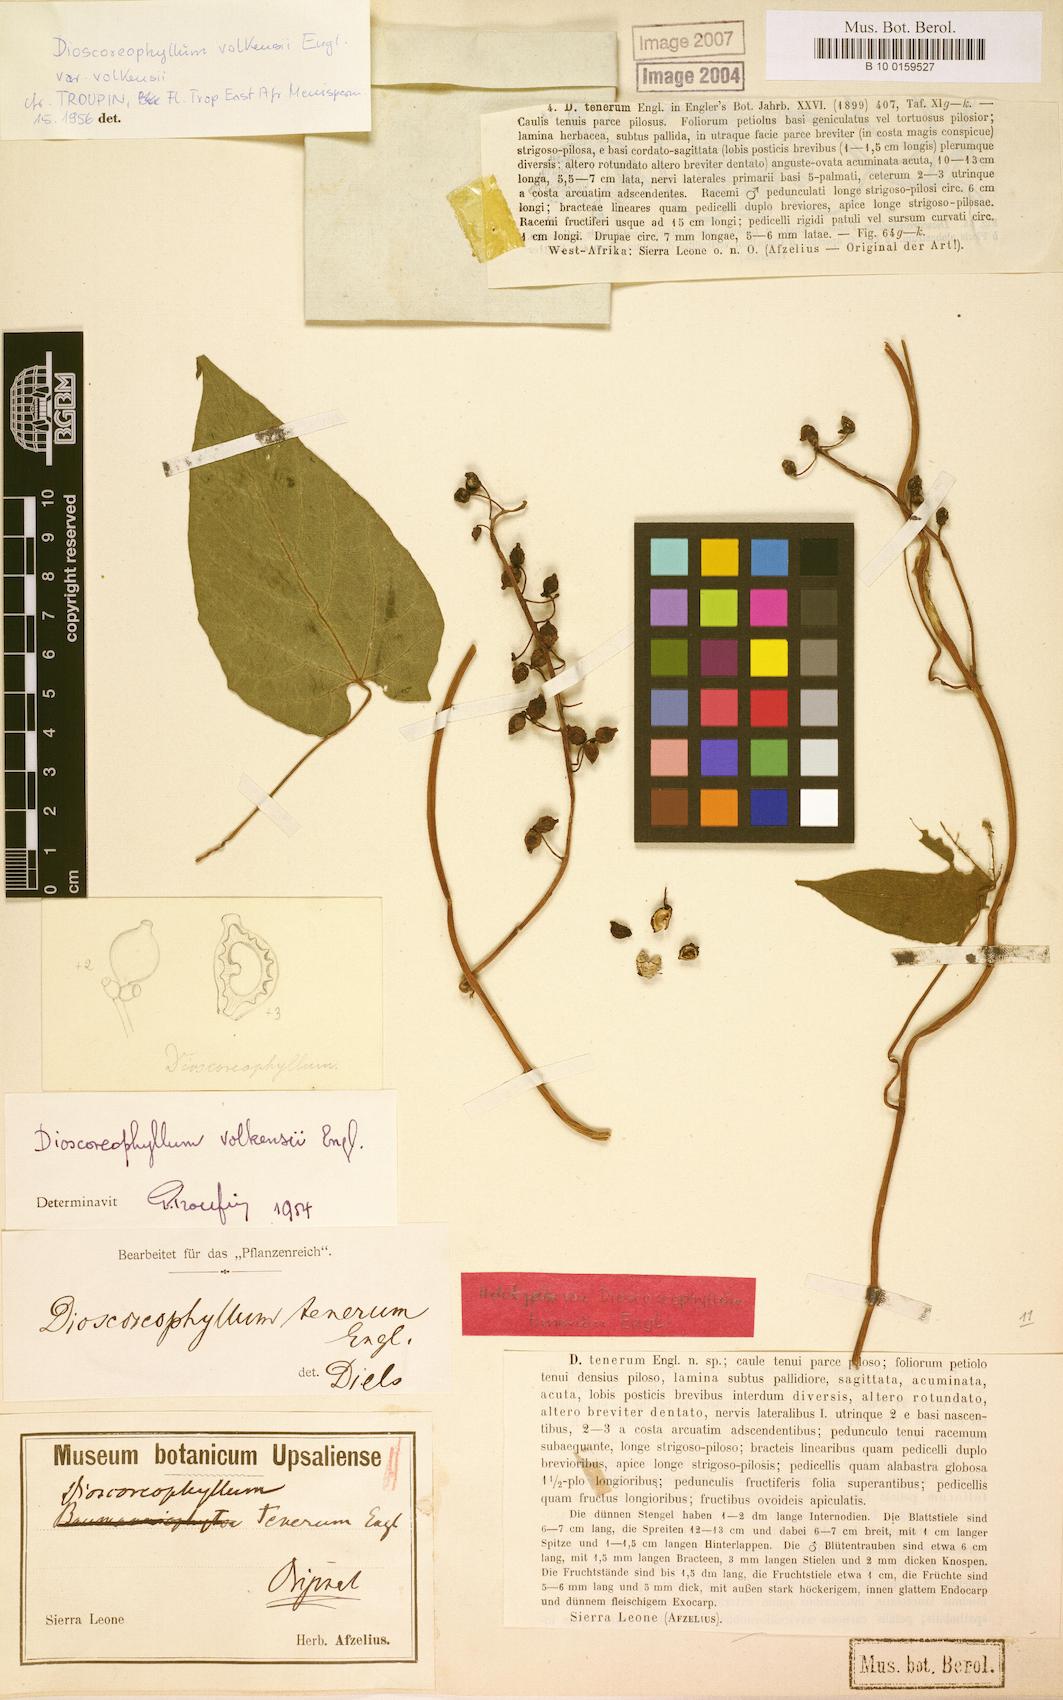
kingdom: Plantae
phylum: Tracheophyta
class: Magnoliopsida
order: Ranunculales
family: Menispermaceae
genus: Dioscoreophyllum
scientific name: Dioscoreophyllum volkensii
